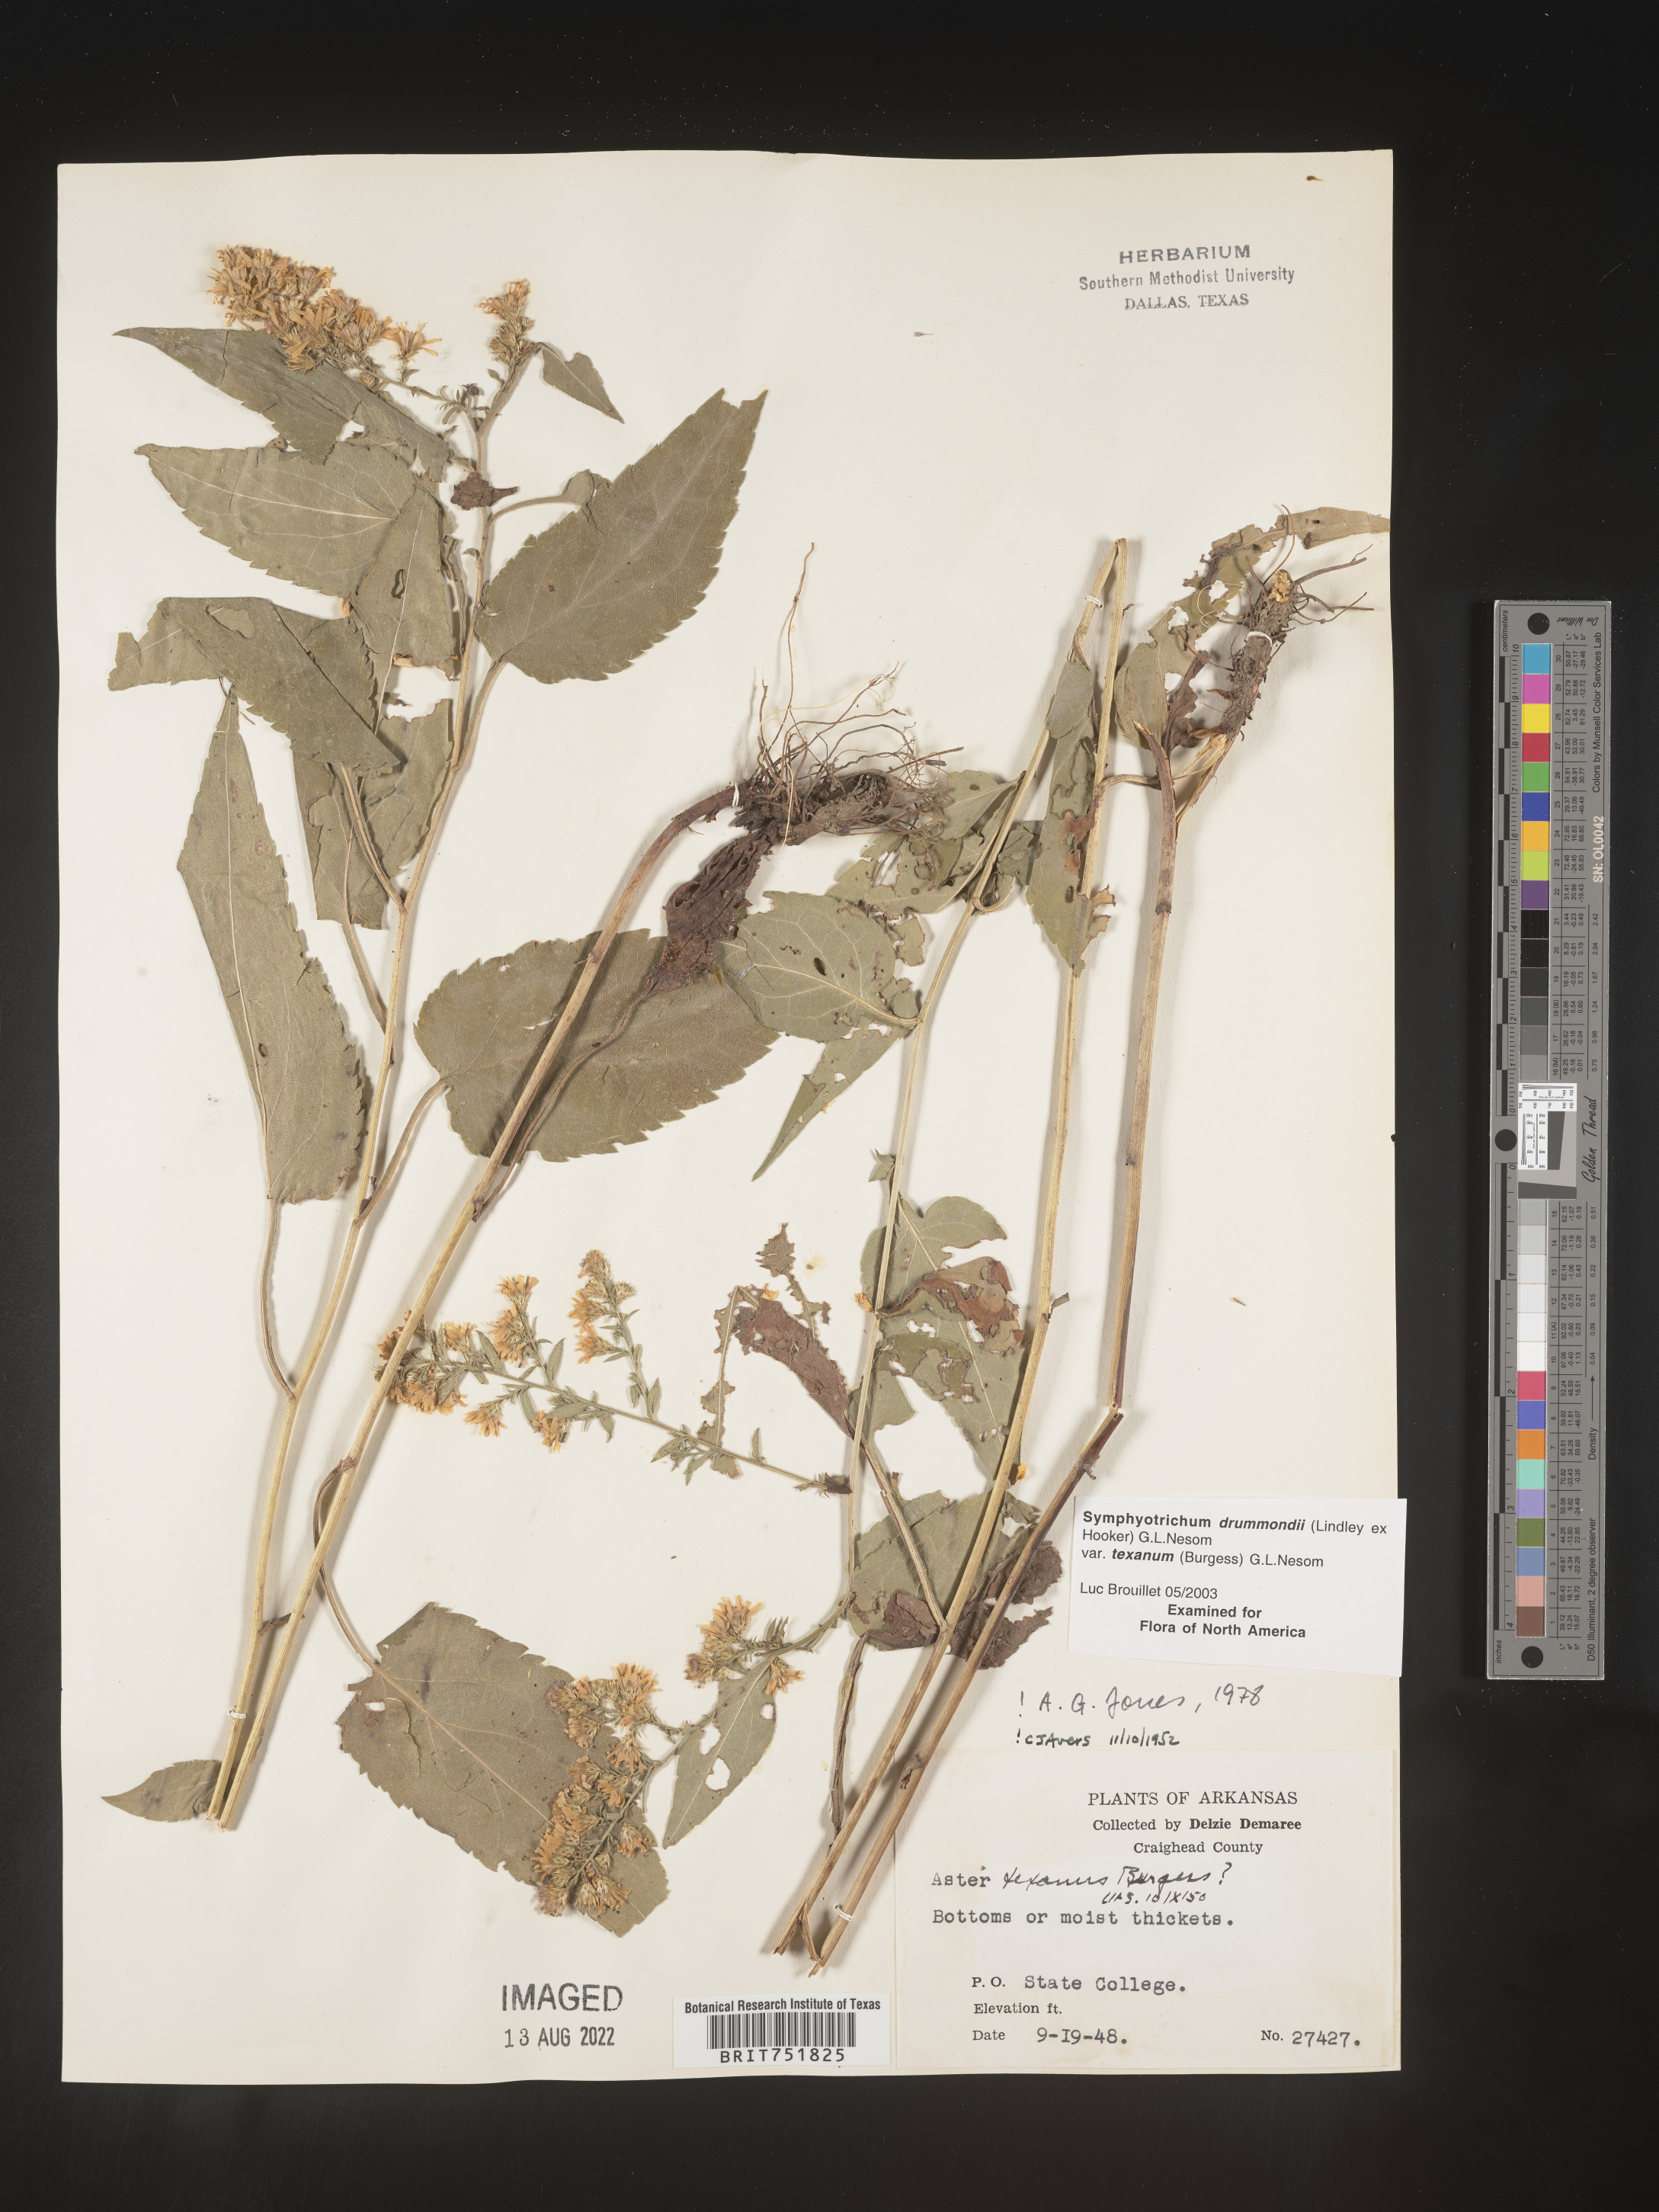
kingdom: Plantae
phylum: Tracheophyta
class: Magnoliopsida
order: Asterales
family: Asteraceae
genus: Symphyotrichum
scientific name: Symphyotrichum drummondii
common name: Drummond's aster
